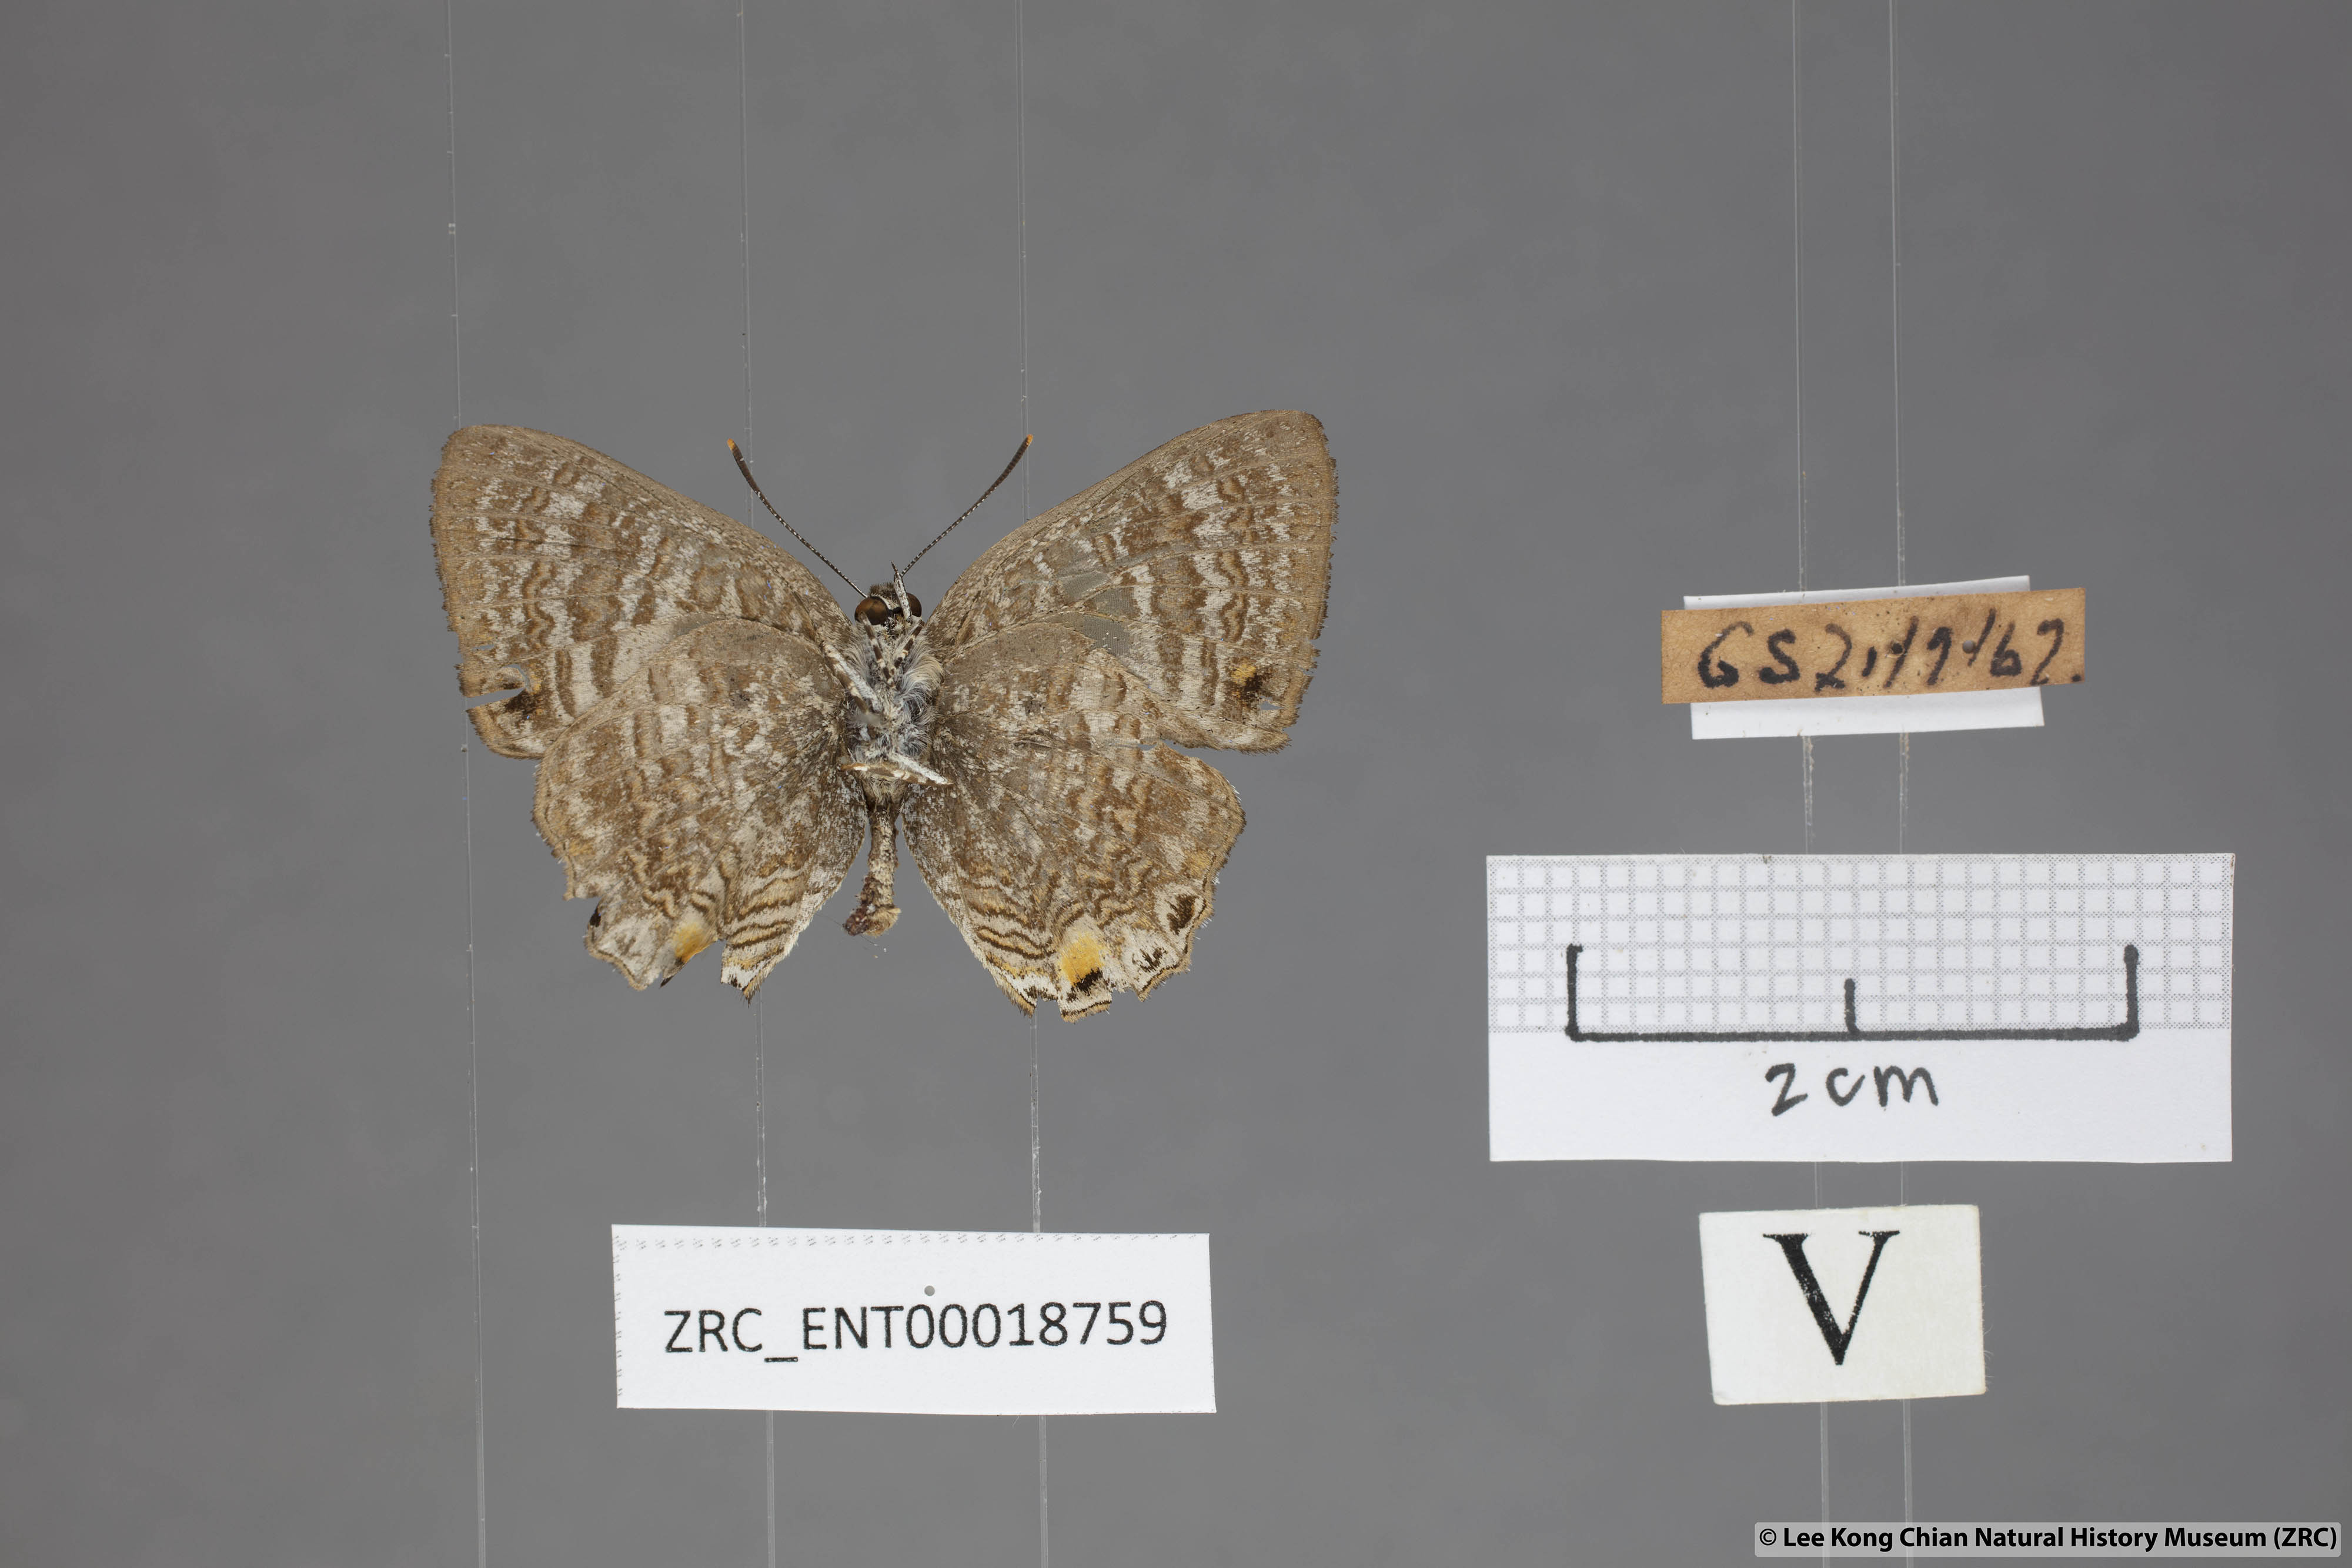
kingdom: Animalia
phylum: Arthropoda
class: Insecta
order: Lepidoptera
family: Lycaenidae
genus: Poritia
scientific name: Poritia erycinoides
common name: Blue gem
